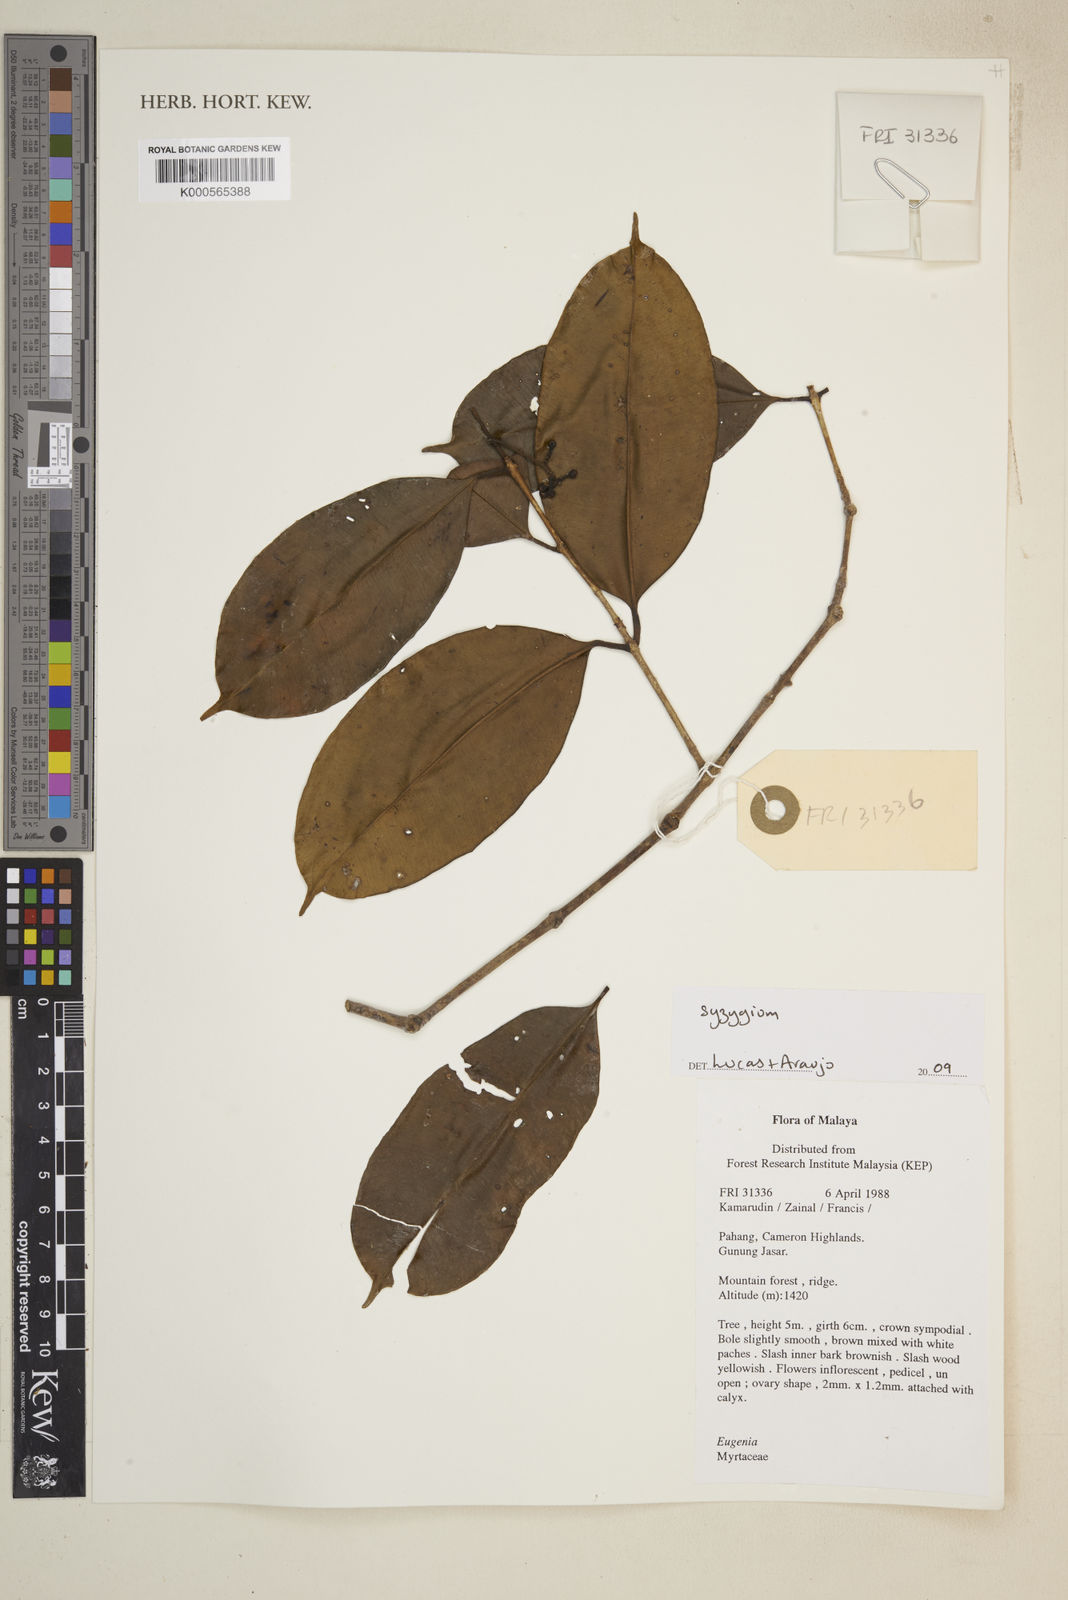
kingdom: Plantae
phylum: Tracheophyta
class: Magnoliopsida
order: Myrtales
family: Myrtaceae
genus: Syzygium
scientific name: Syzygium
